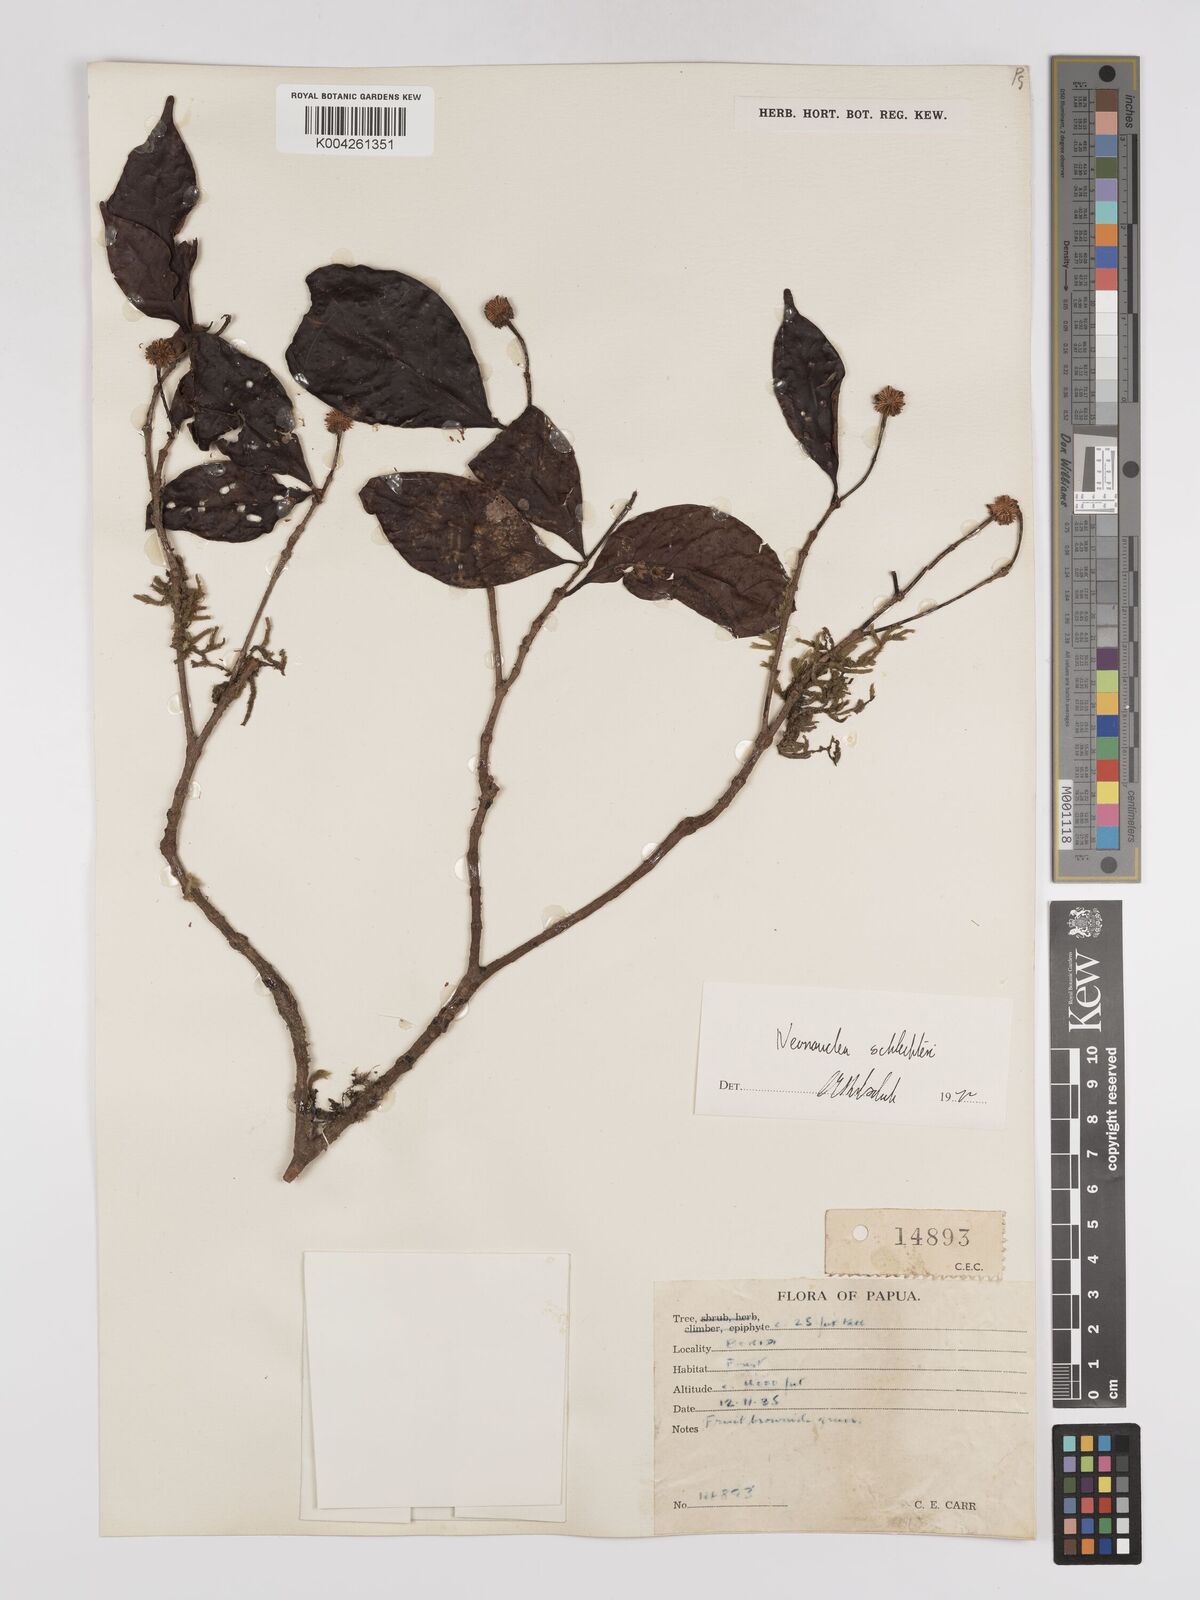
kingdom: Plantae
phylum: Tracheophyta
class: Magnoliopsida
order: Gentianales
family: Rubiaceae
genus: Neonauclea
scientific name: Neonauclea lanceolata
